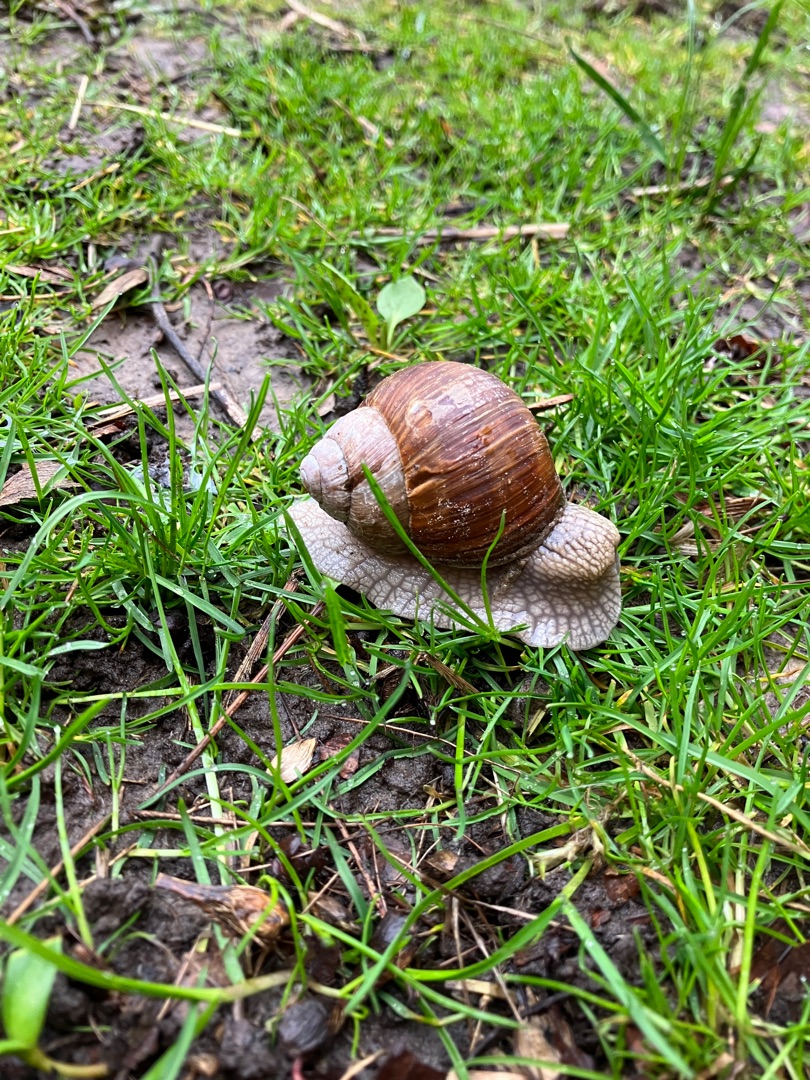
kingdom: Animalia
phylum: Mollusca
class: Gastropoda
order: Stylommatophora
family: Helicidae
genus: Helix
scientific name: Helix pomatia
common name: Vinbjergsnegl
